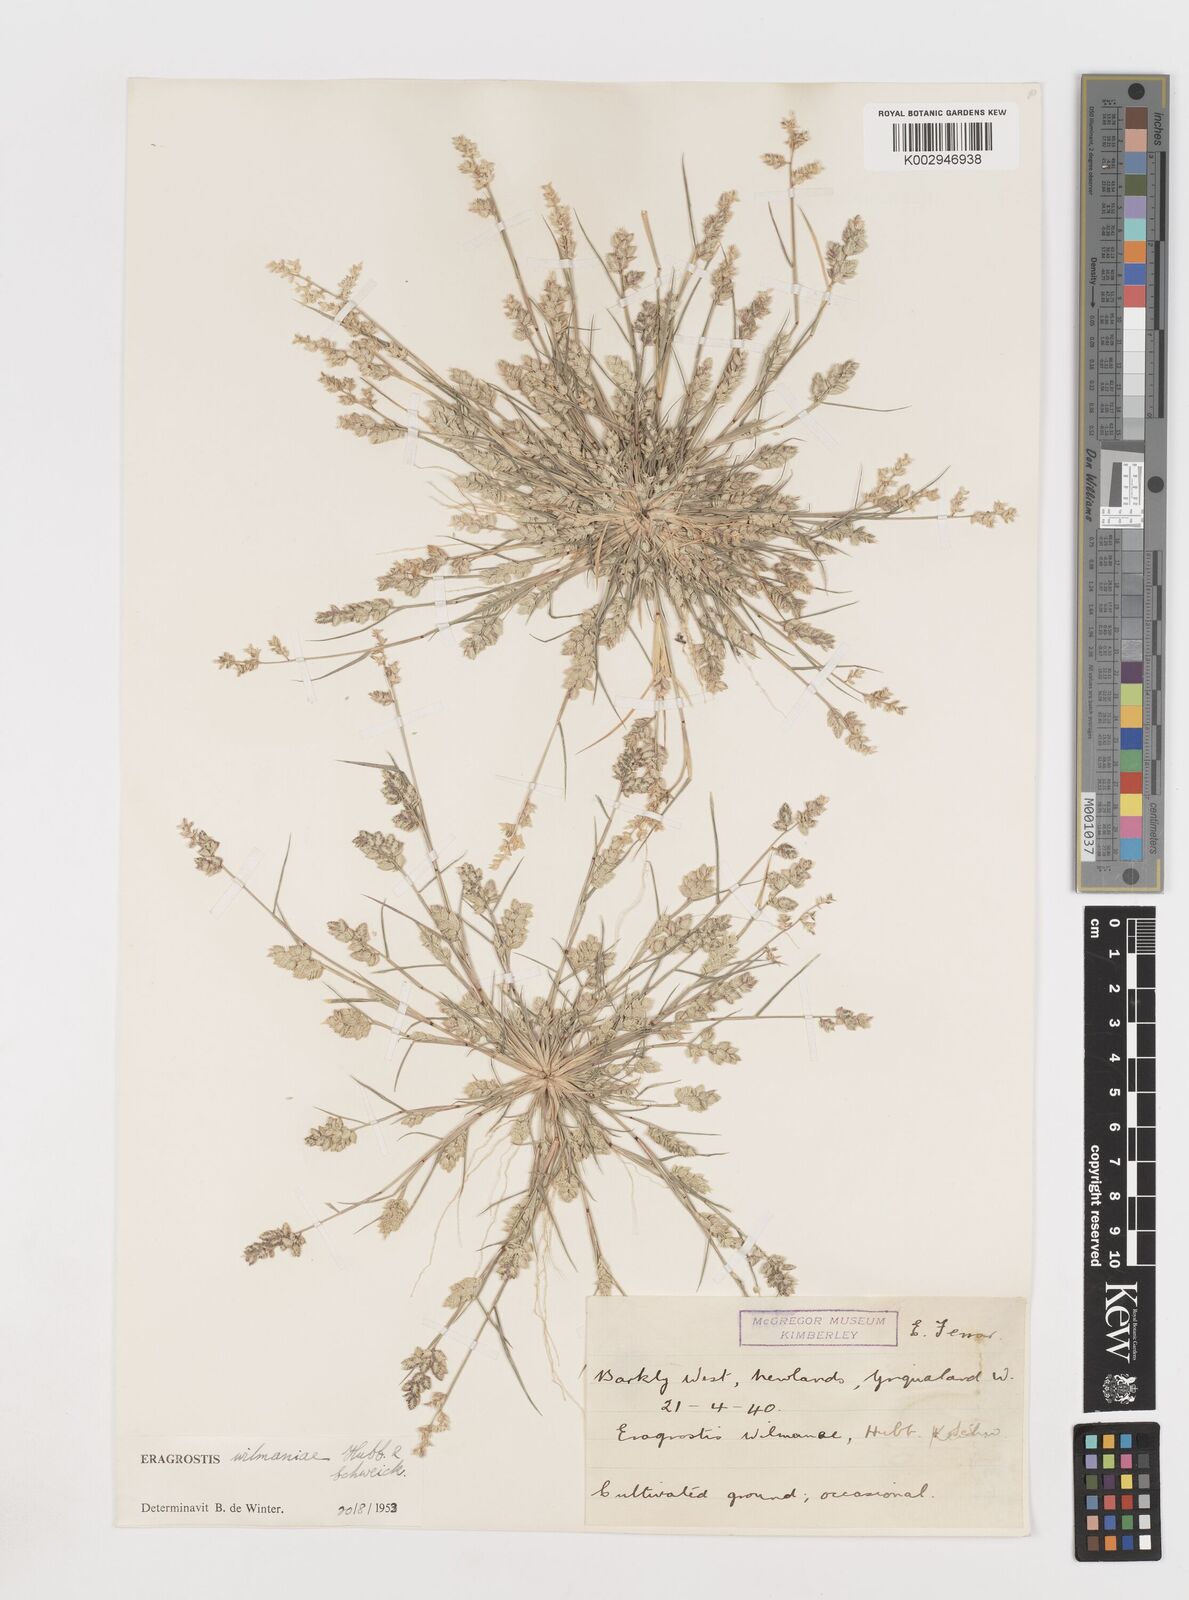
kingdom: Plantae
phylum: Tracheophyta
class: Liliopsida
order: Poales
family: Poaceae
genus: Eragrostis
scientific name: Eragrostis macrochlamys
